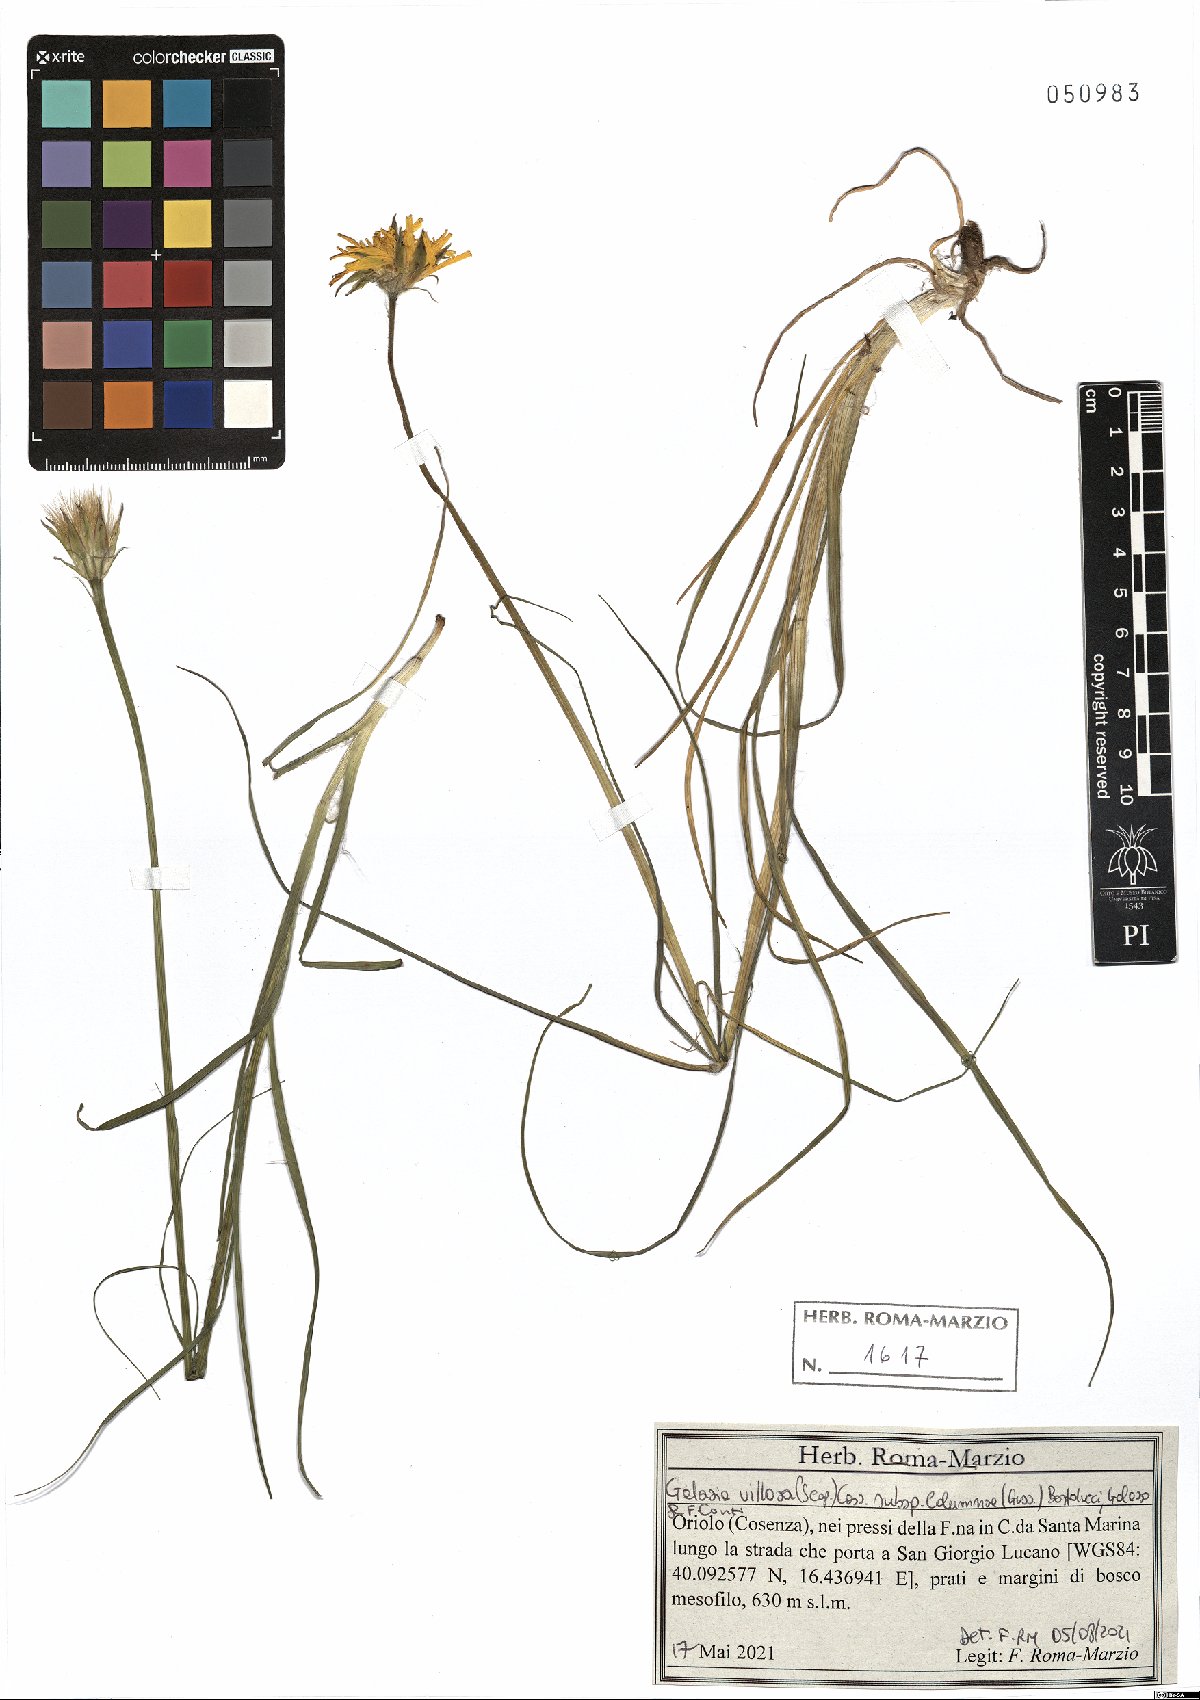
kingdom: Plantae
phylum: Tracheophyta
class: Magnoliopsida
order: Asterales
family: Asteraceae
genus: Gelasia
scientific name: Gelasia villosa
